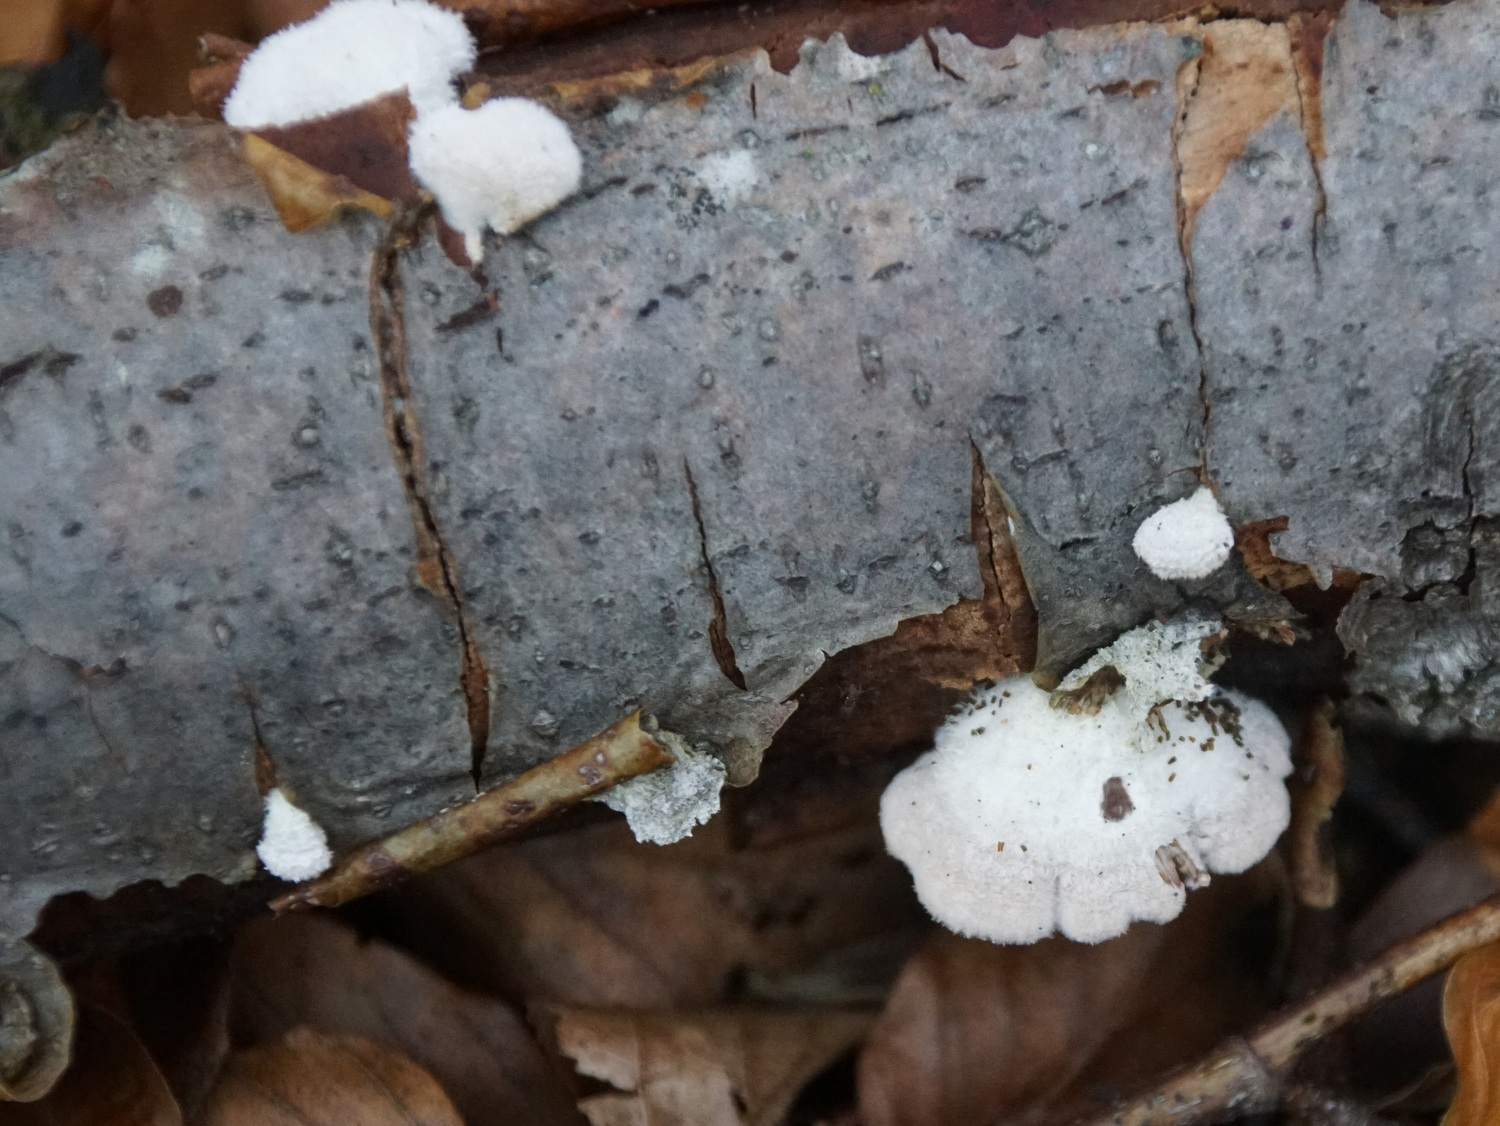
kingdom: Fungi
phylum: Basidiomycota
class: Agaricomycetes
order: Agaricales
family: Schizophyllaceae
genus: Schizophyllum
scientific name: Schizophyllum commune
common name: kløvblad
